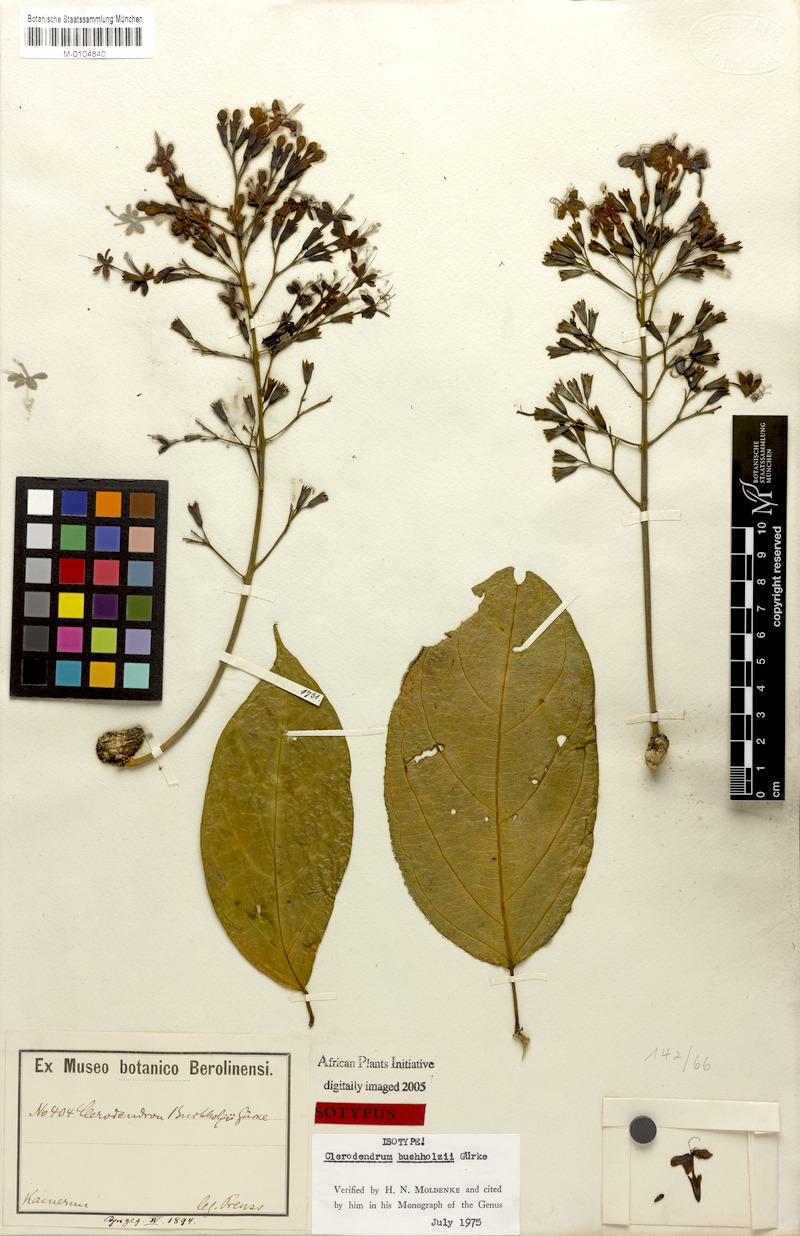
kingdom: Plantae
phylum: Tracheophyta
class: Magnoliopsida
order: Lamiales
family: Lamiaceae
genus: Clerodendrum
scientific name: Clerodendrum silvanum
